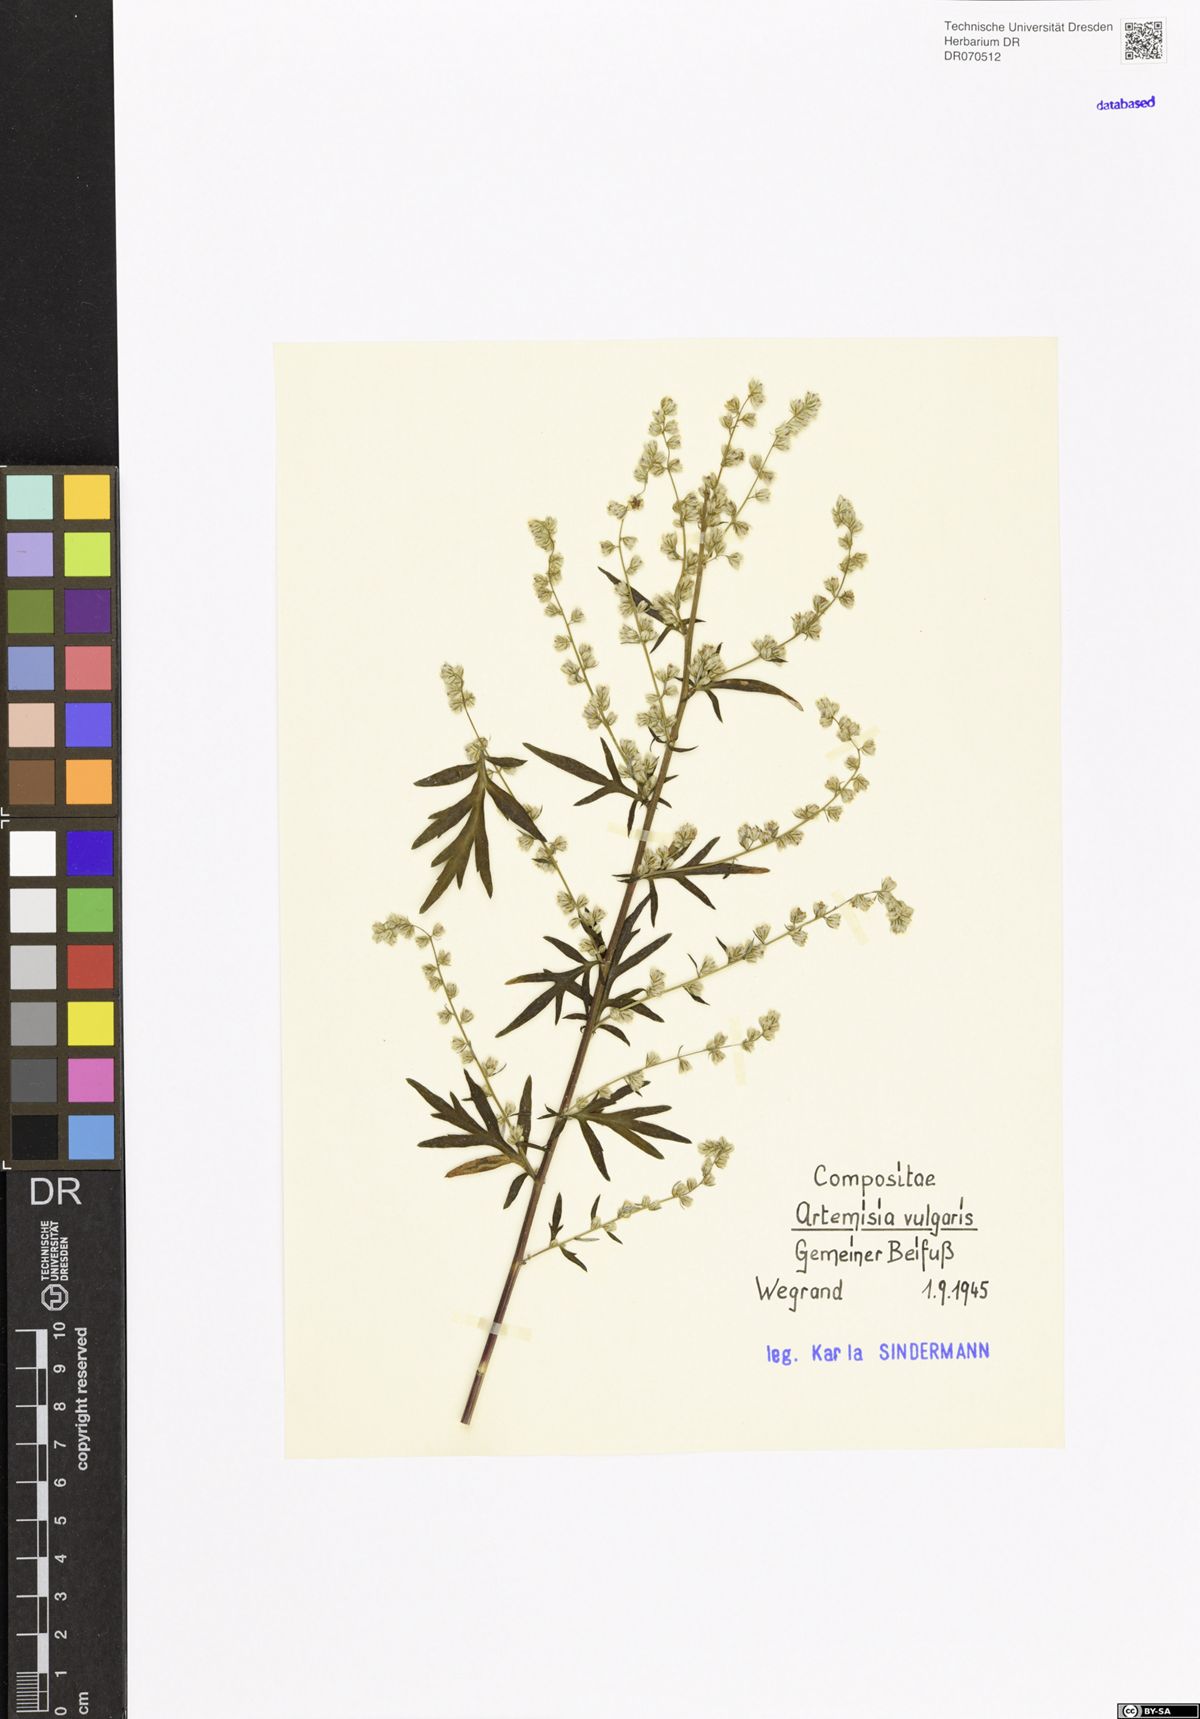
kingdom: Plantae
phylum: Tracheophyta
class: Magnoliopsida
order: Asterales
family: Asteraceae
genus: Artemisia
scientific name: Artemisia vulgaris
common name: Mugwort
